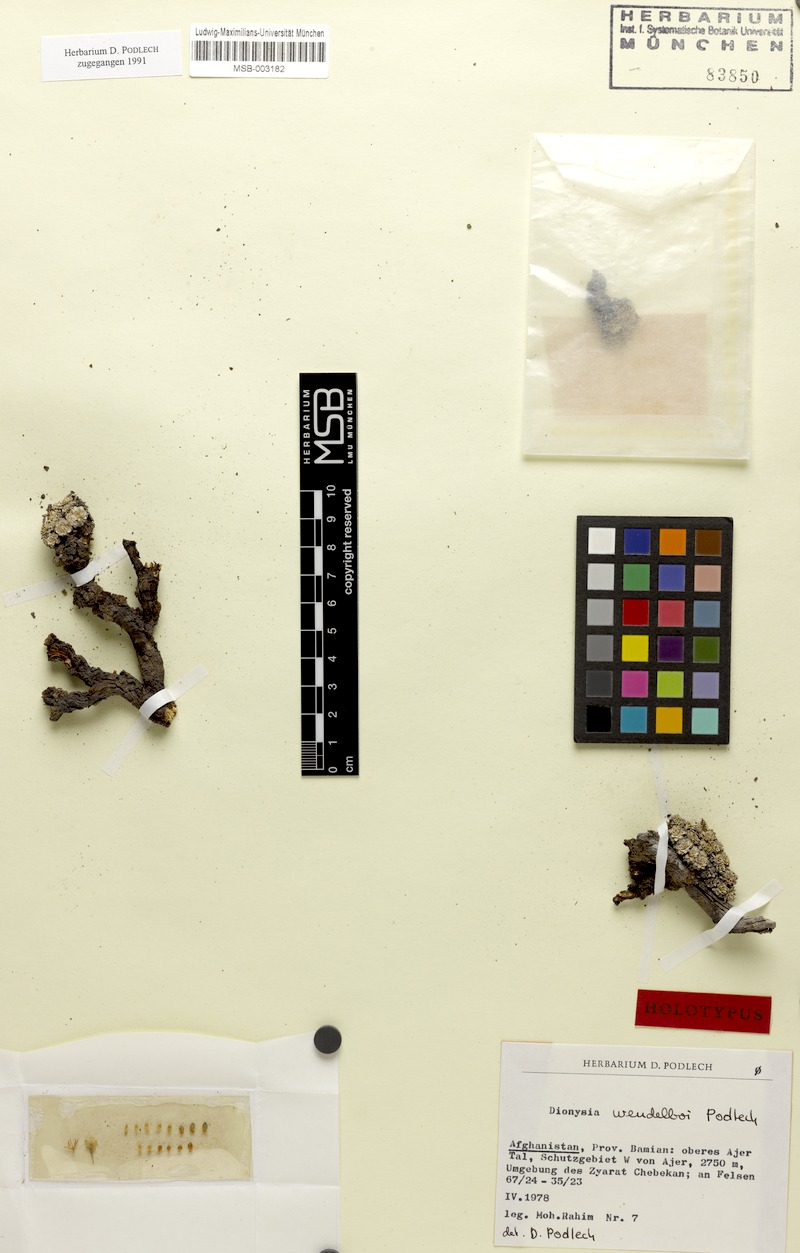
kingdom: Plantae
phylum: Tracheophyta
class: Magnoliopsida
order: Ericales
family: Primulaceae
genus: Dionysia
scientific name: Dionysia wendelboi
